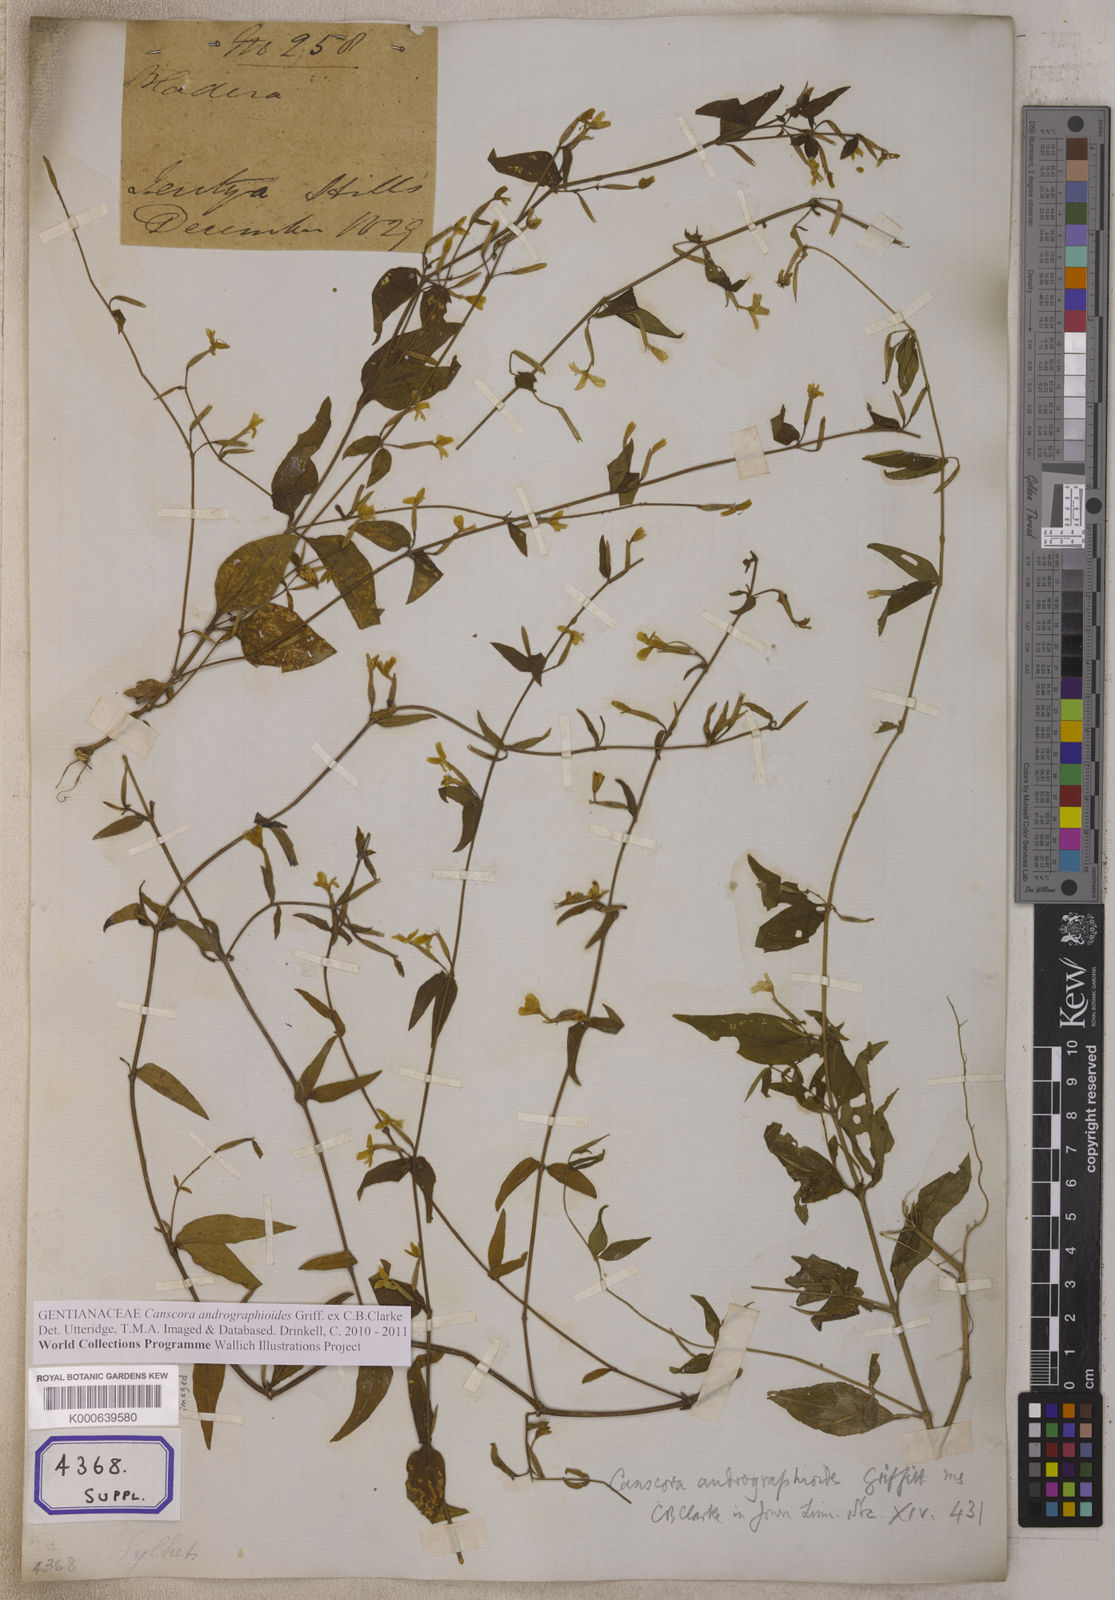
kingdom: Plantae
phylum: Tracheophyta
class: Magnoliopsida
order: Gentianales
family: Gentianaceae
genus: Canscora
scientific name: Canscora andrographioides
